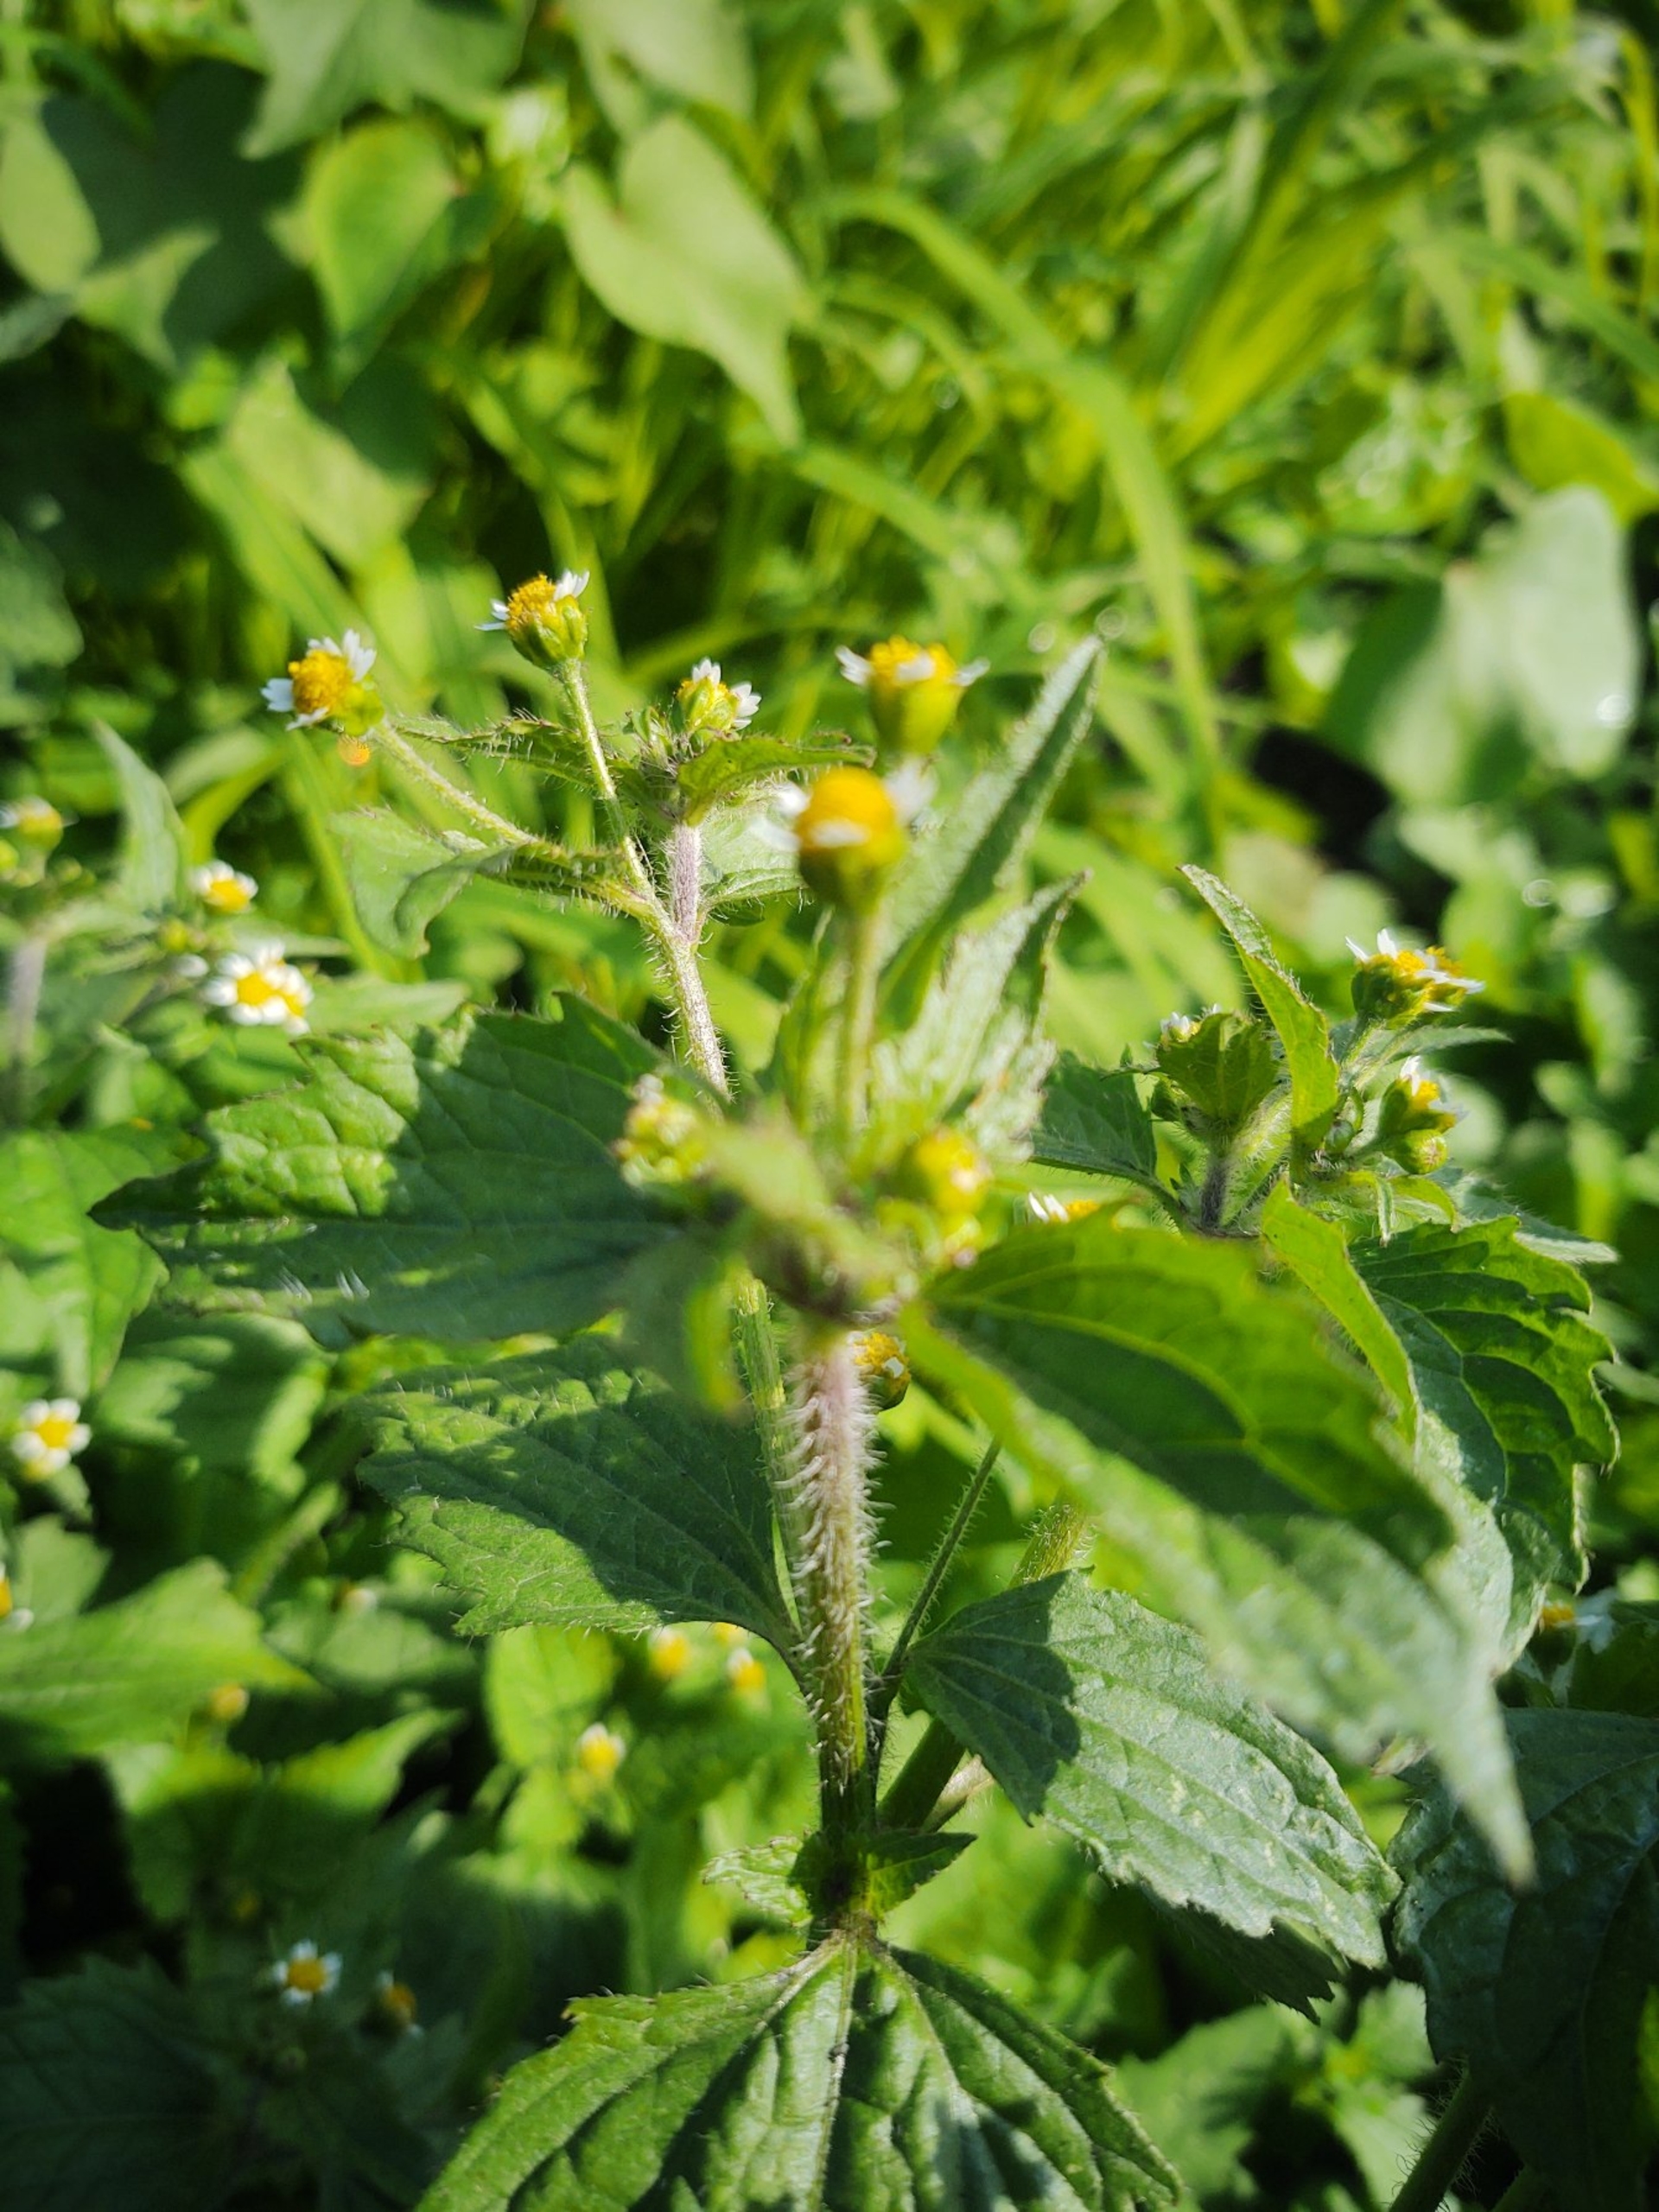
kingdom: Plantae
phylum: Tracheophyta
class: Magnoliopsida
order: Asterales
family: Asteraceae
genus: Galinsoga
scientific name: Galinsoga quadriradiata
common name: Kirtel-kortstråle
